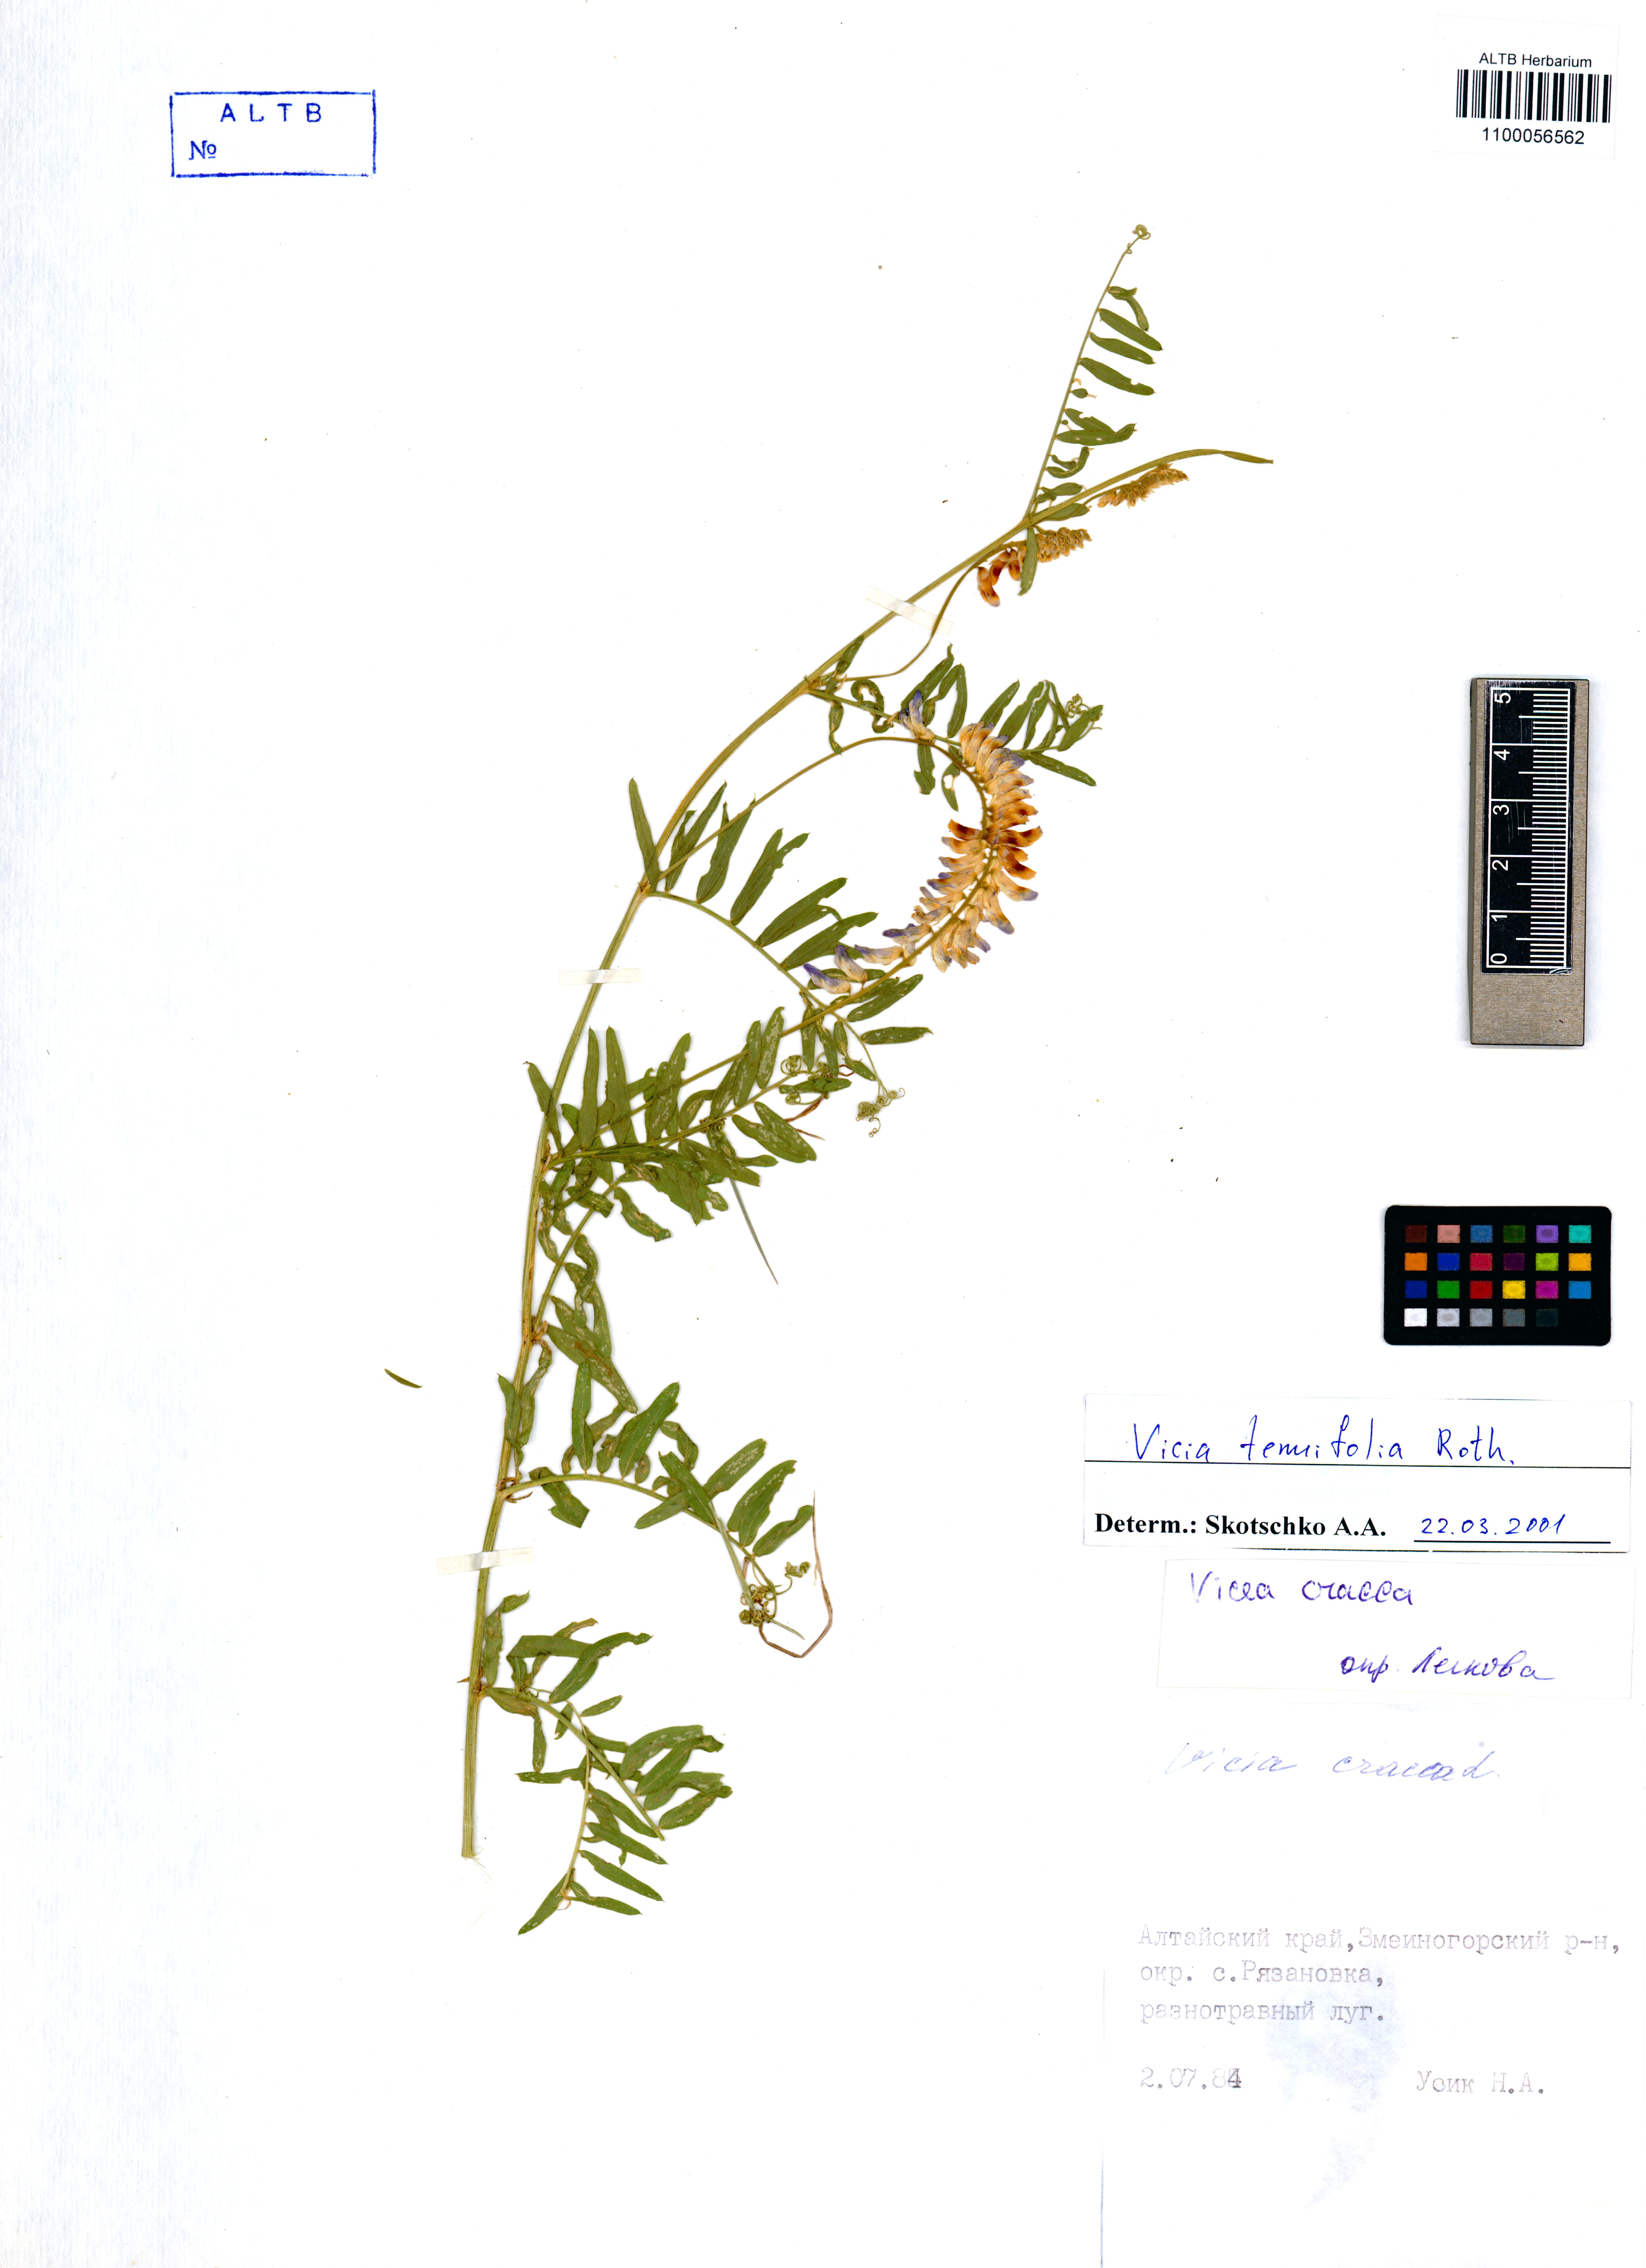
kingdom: Plantae
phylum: Tracheophyta
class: Magnoliopsida
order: Fabales
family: Fabaceae
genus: Vicia
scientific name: Vicia tenuifolia
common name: Fine-leaved vetch
